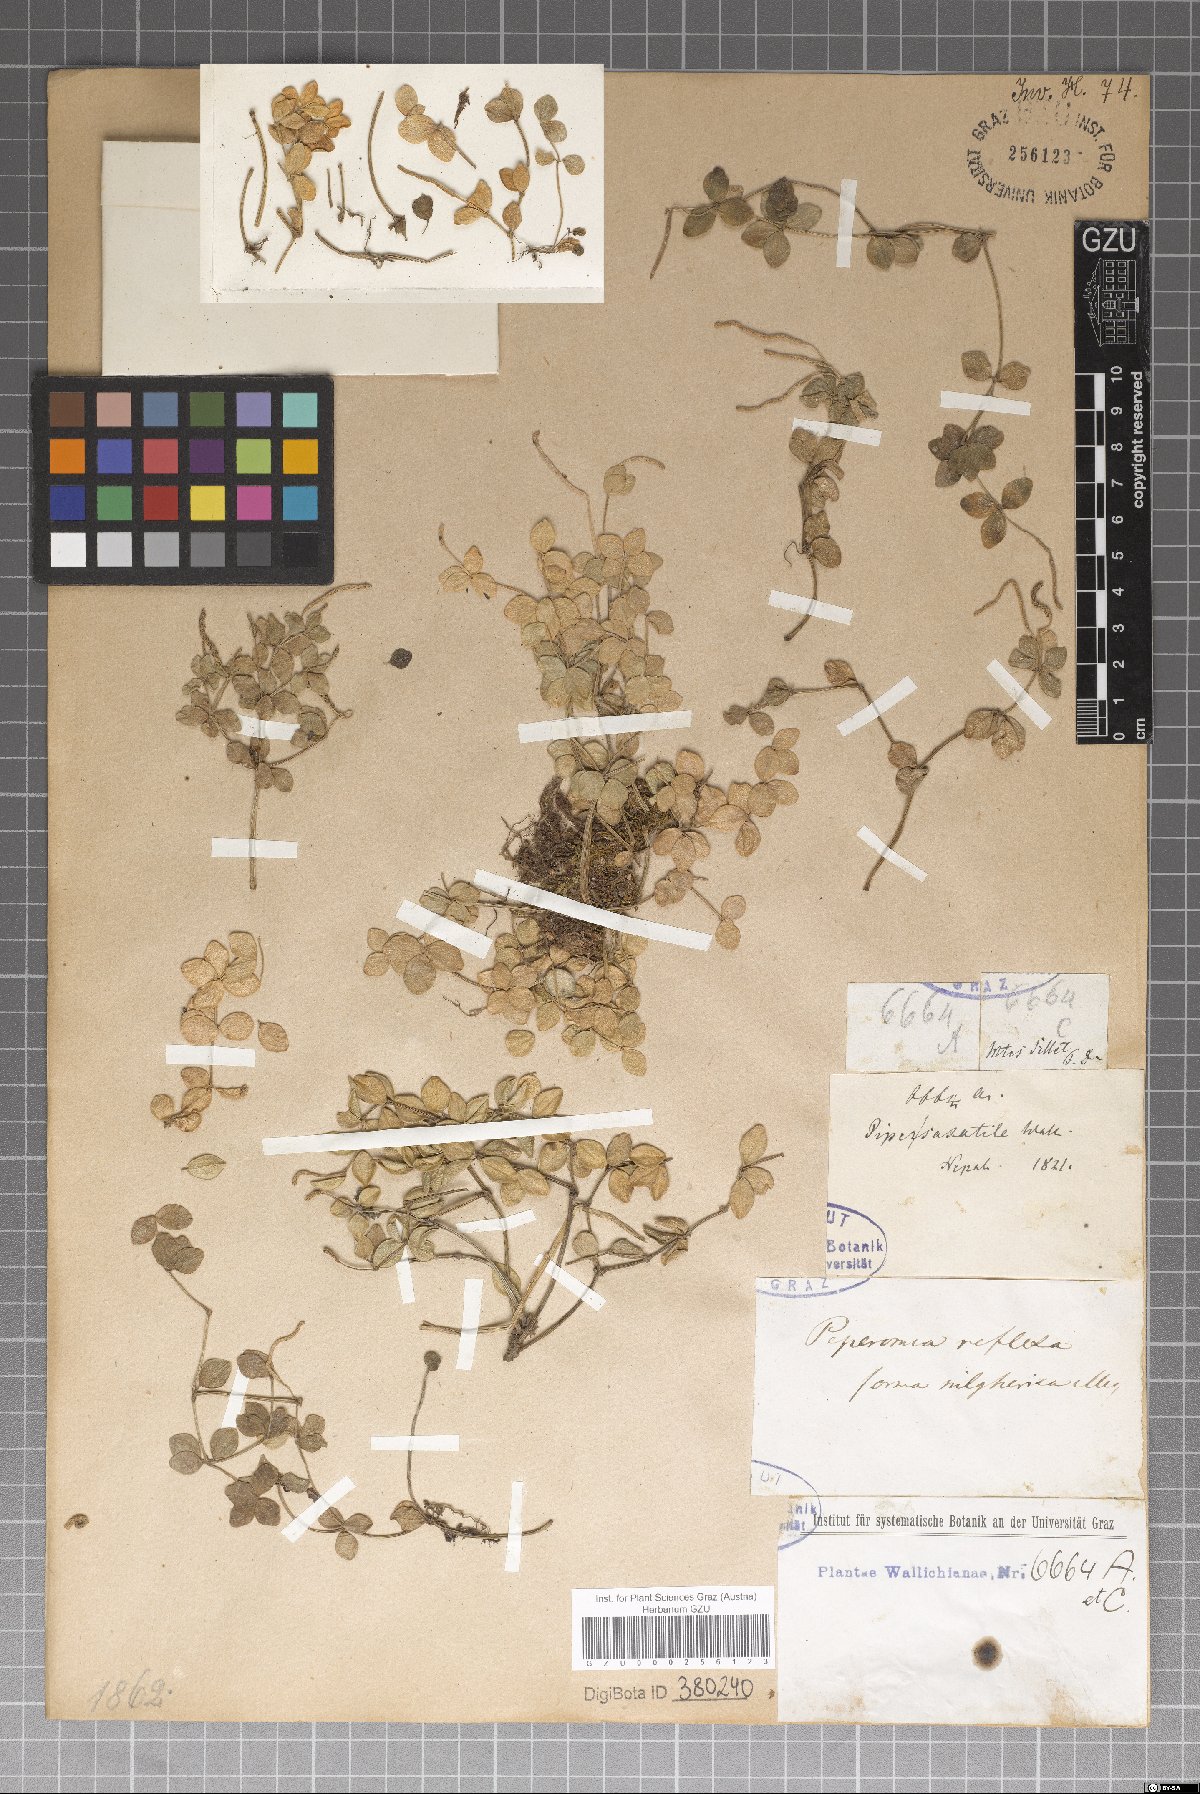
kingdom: Plantae
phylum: Tracheophyta
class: Magnoliopsida
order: Piperales
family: Piperaceae
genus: Peperomia
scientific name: Peperomia tetraphylla
